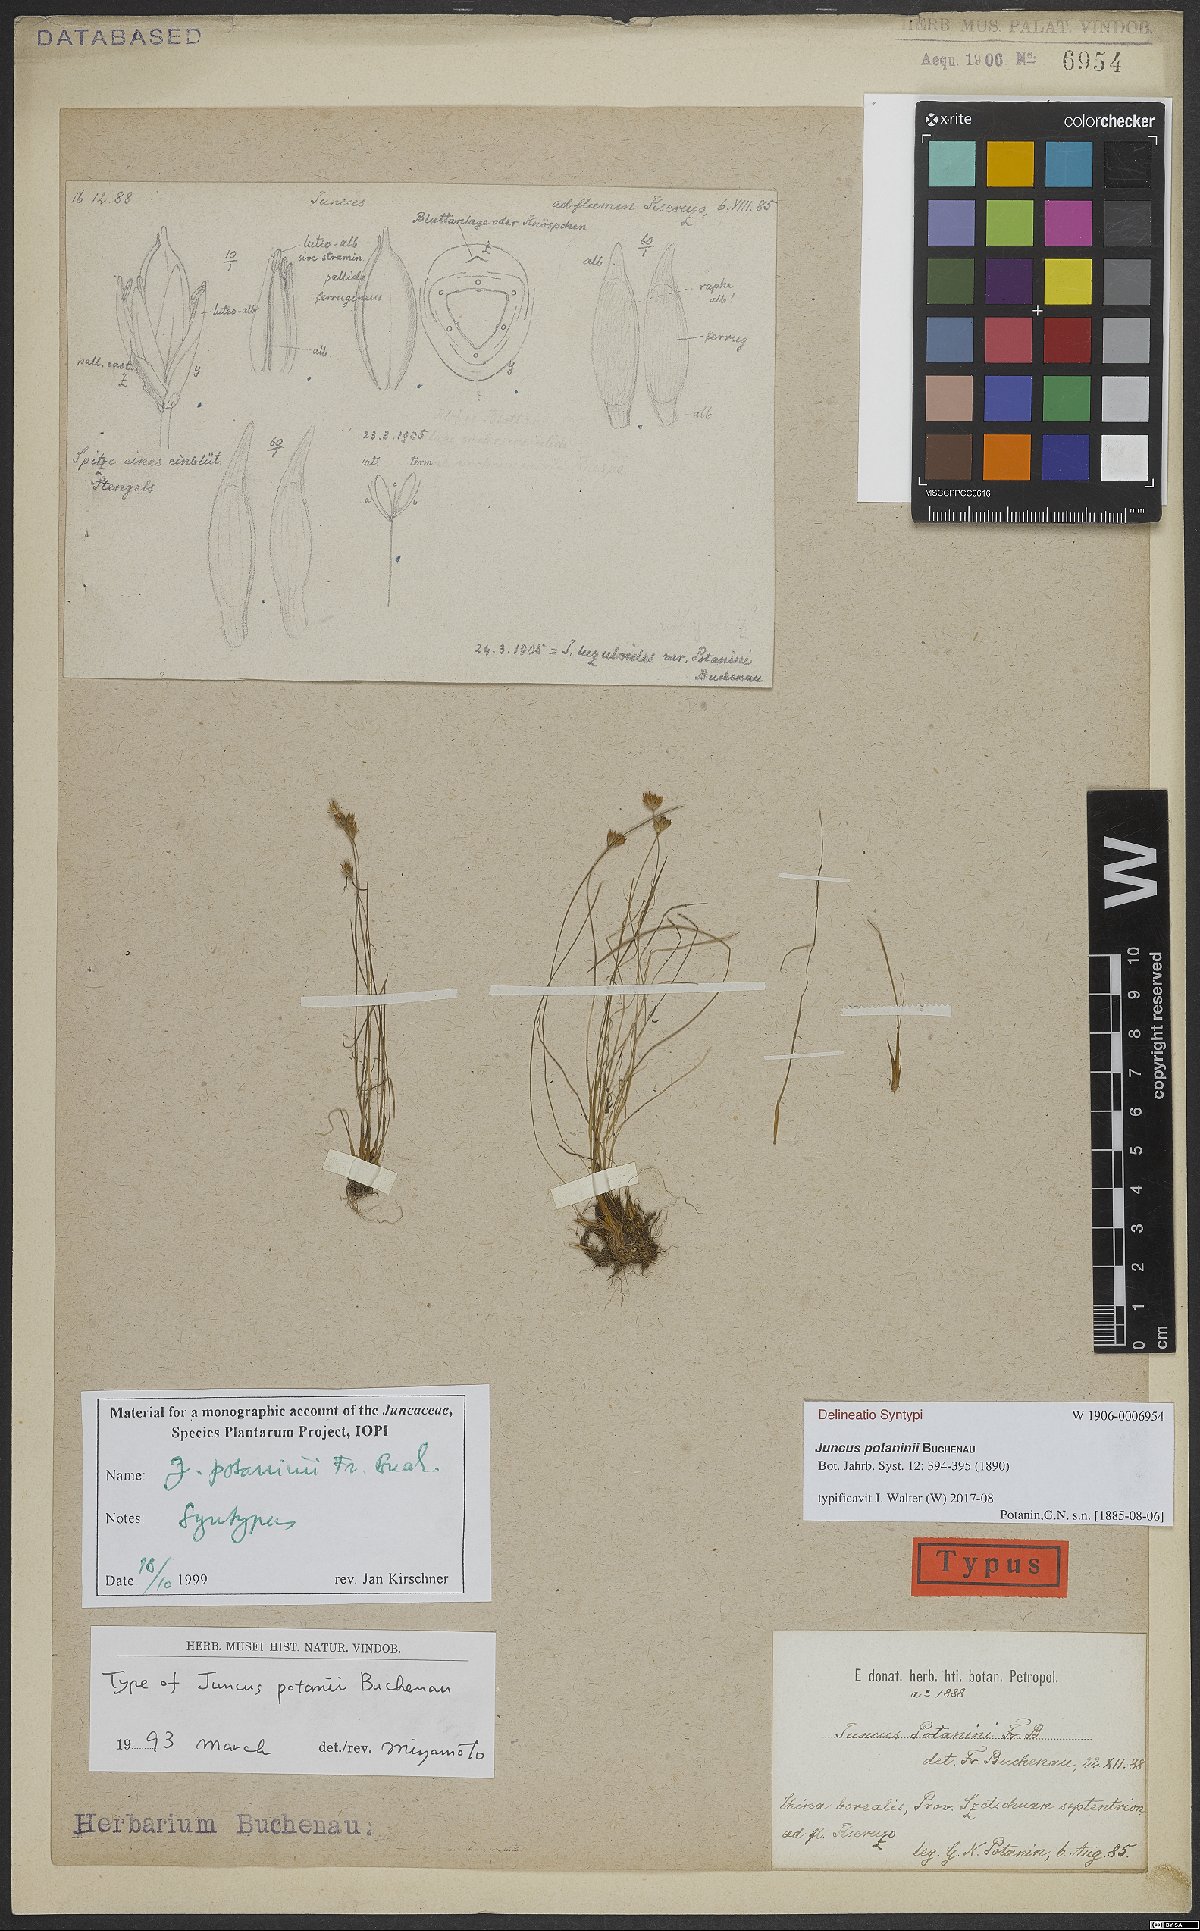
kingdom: Plantae
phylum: Tracheophyta
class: Liliopsida
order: Poales
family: Juncaceae
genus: Juncus
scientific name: Juncus potaninii
